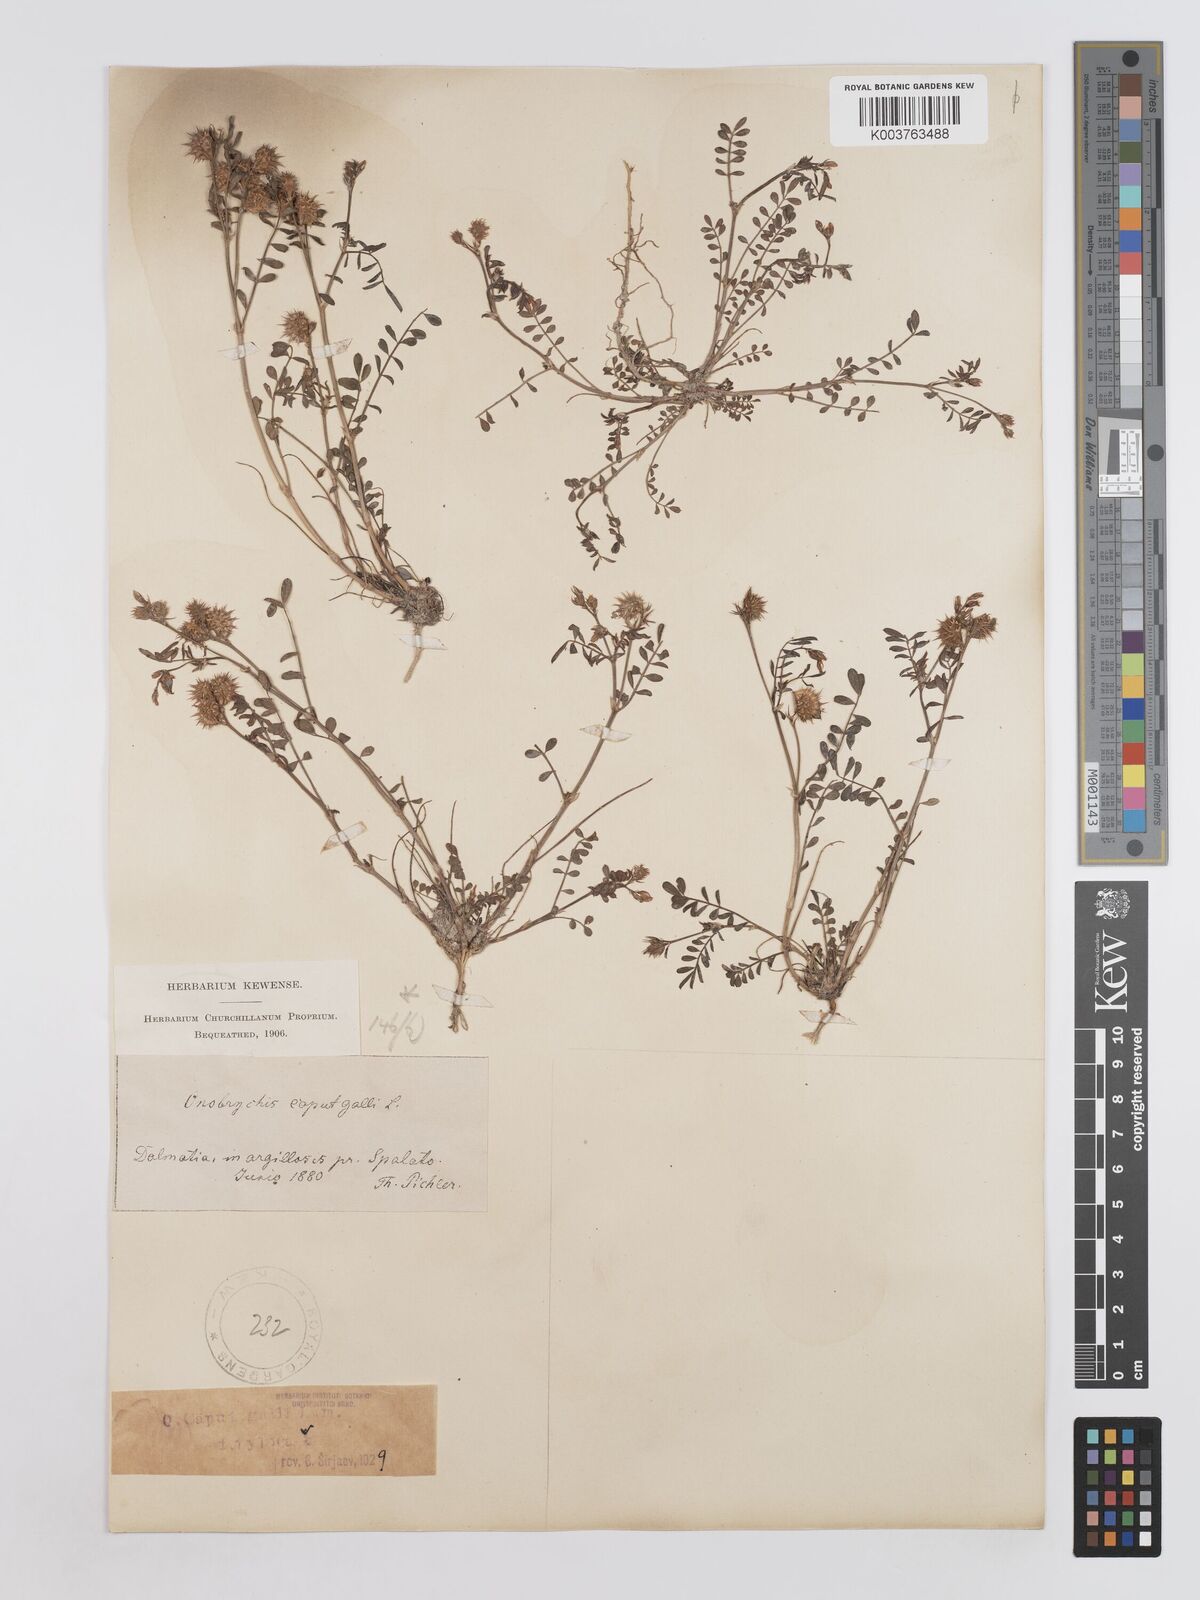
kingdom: Plantae
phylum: Tracheophyta
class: Magnoliopsida
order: Fabales
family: Fabaceae
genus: Onobrychis
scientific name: Onobrychis caput-galli
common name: Cockscomb sainfoin
